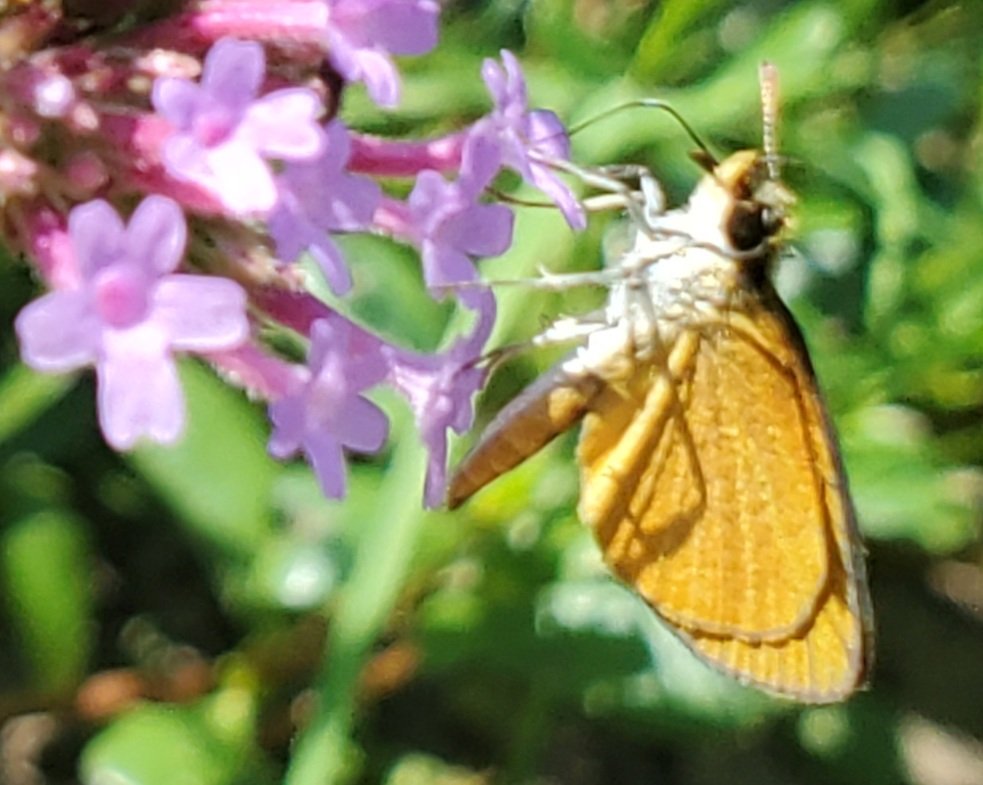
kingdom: Animalia
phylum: Arthropoda
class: Insecta
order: Lepidoptera
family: Hesperiidae
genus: Ancyloxypha
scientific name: Ancyloxypha numitor
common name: Least Skipper
